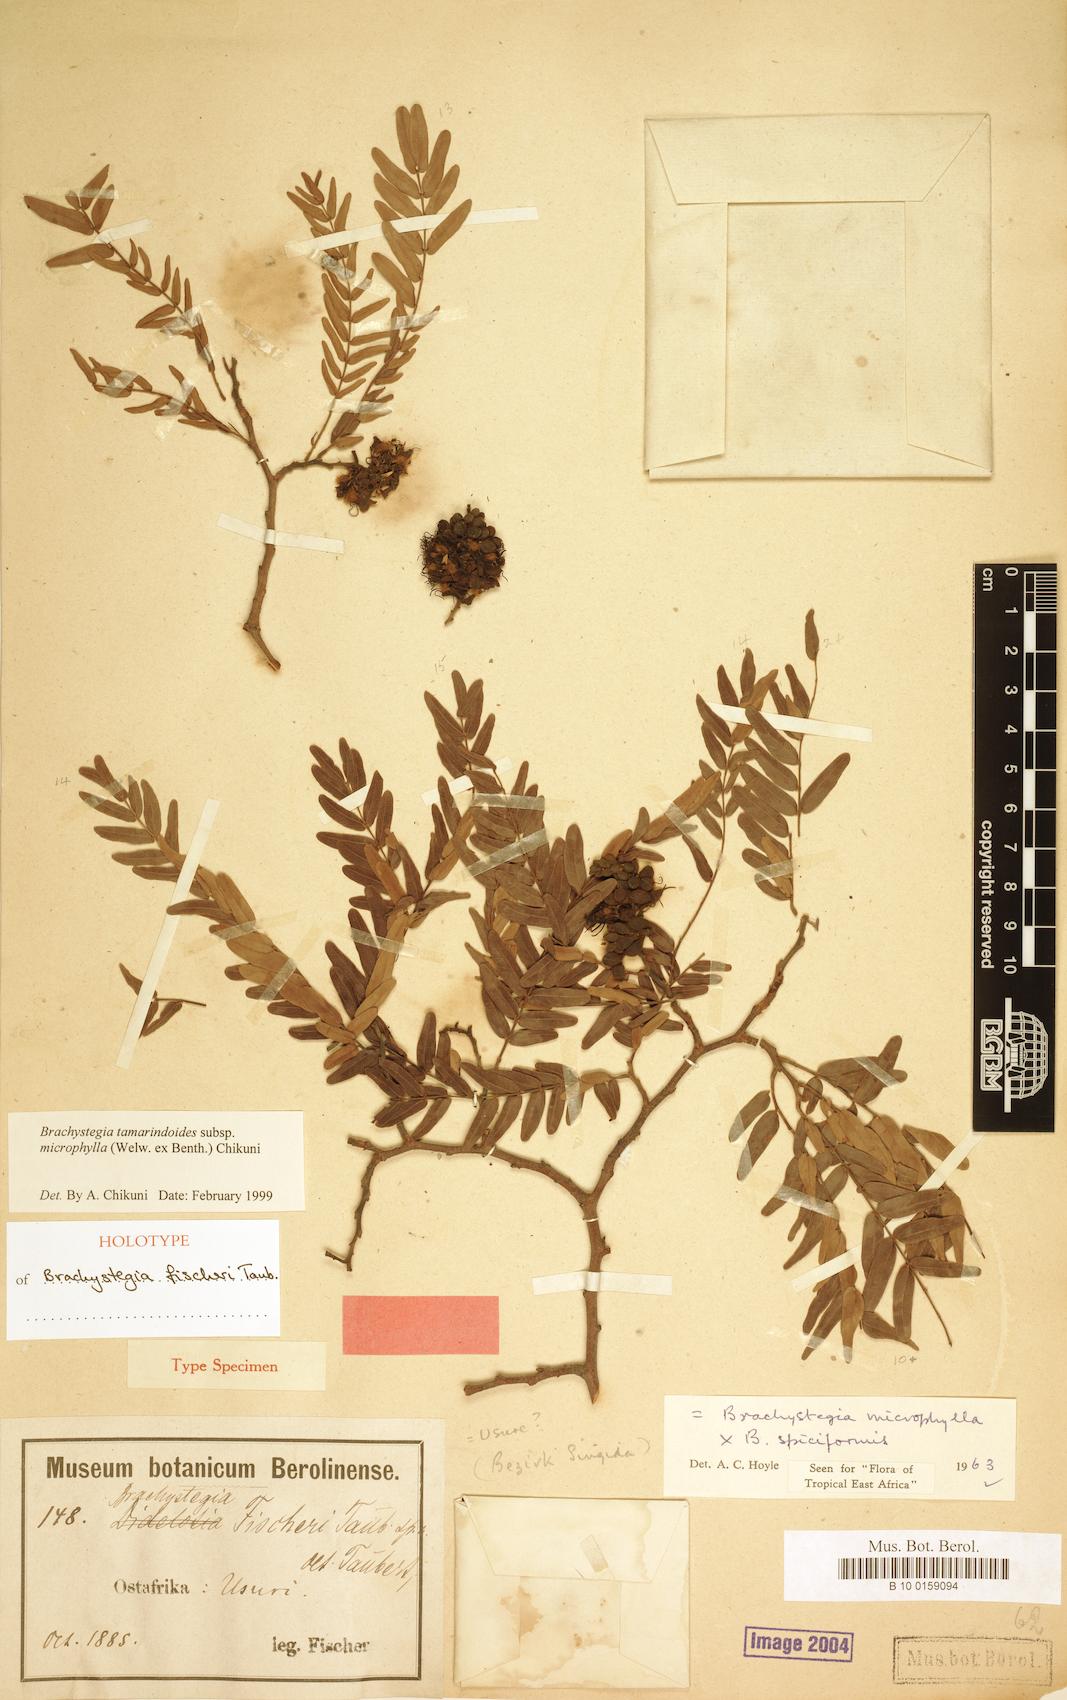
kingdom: Plantae
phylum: Tracheophyta
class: Magnoliopsida
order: Fabales
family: Fabaceae
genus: Brachystegia
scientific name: Brachystegia tamarindoides
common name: Mountain acacia
